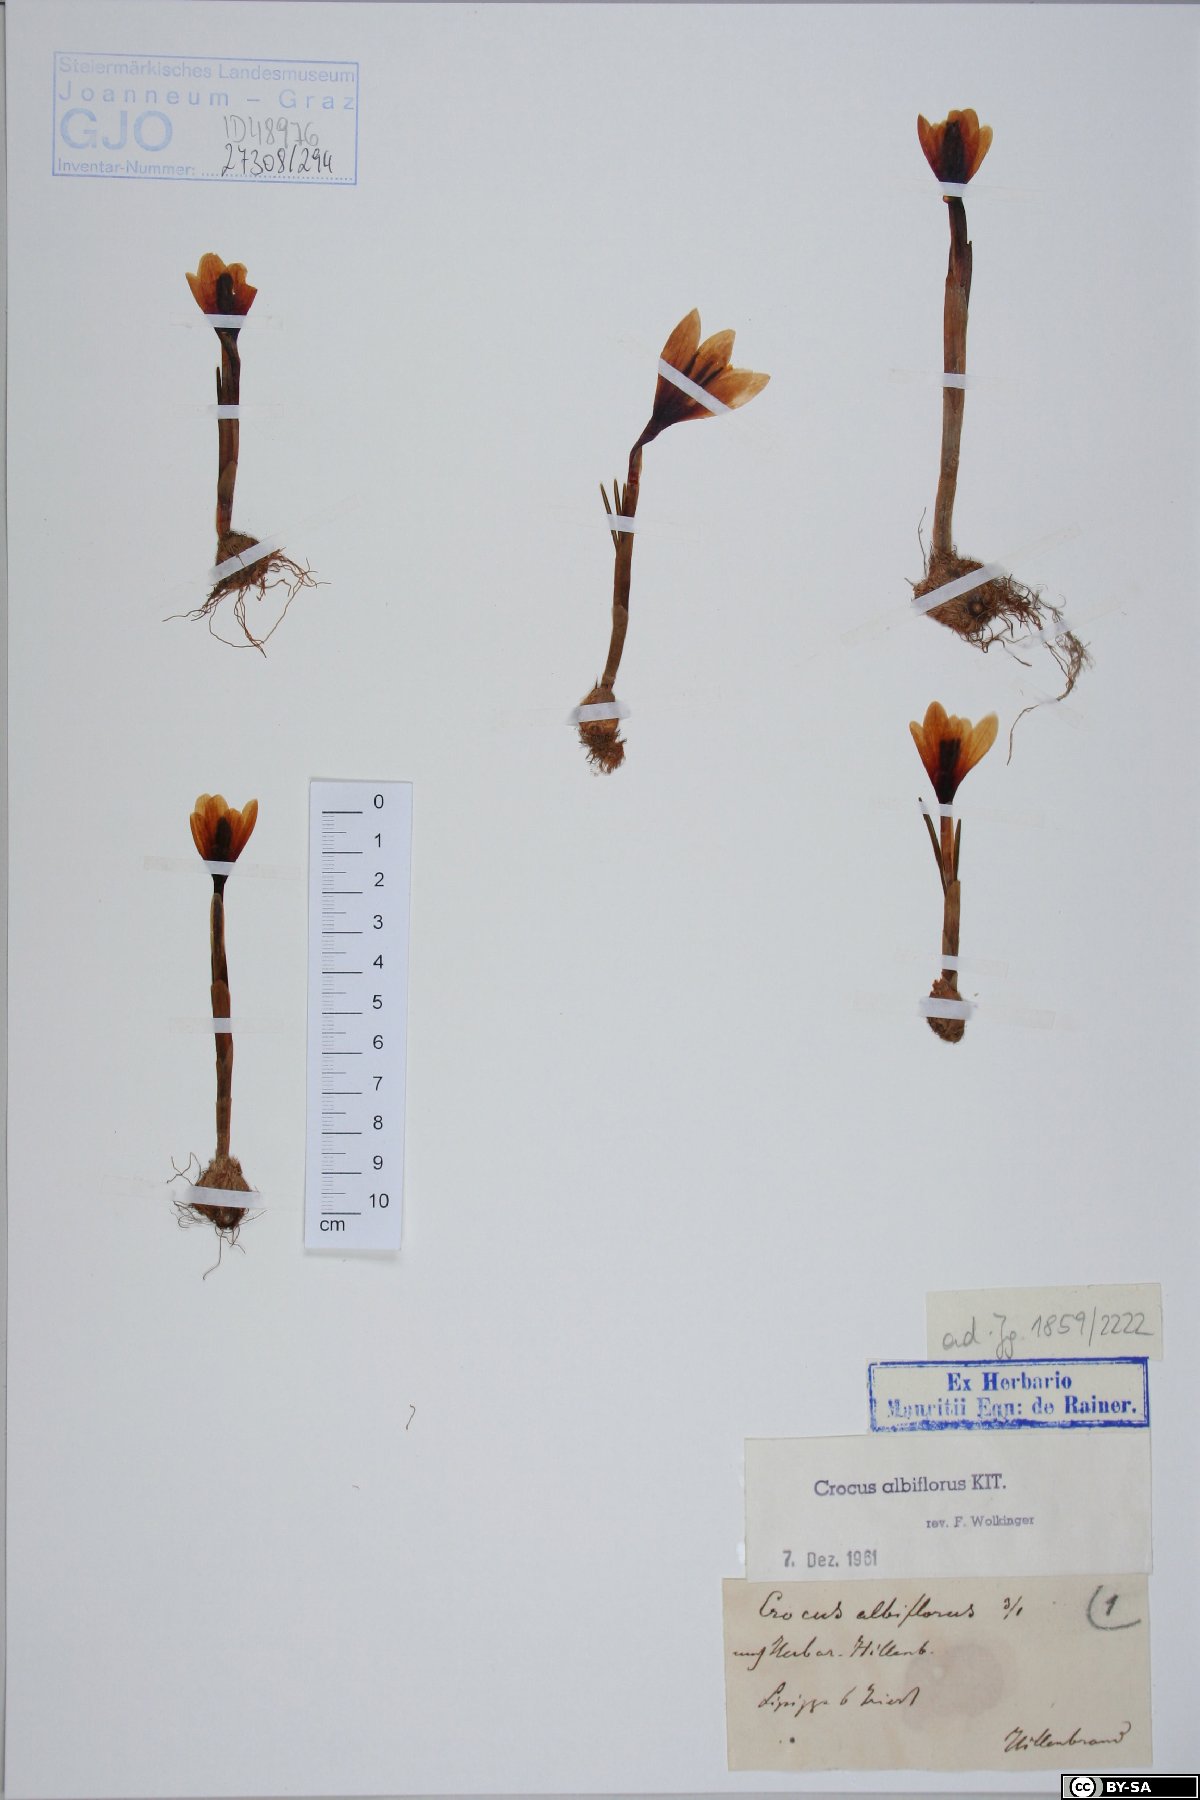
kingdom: Plantae
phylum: Tracheophyta
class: Liliopsida
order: Asparagales
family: Iridaceae
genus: Crocus
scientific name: Crocus vernus
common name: Spring crocus
